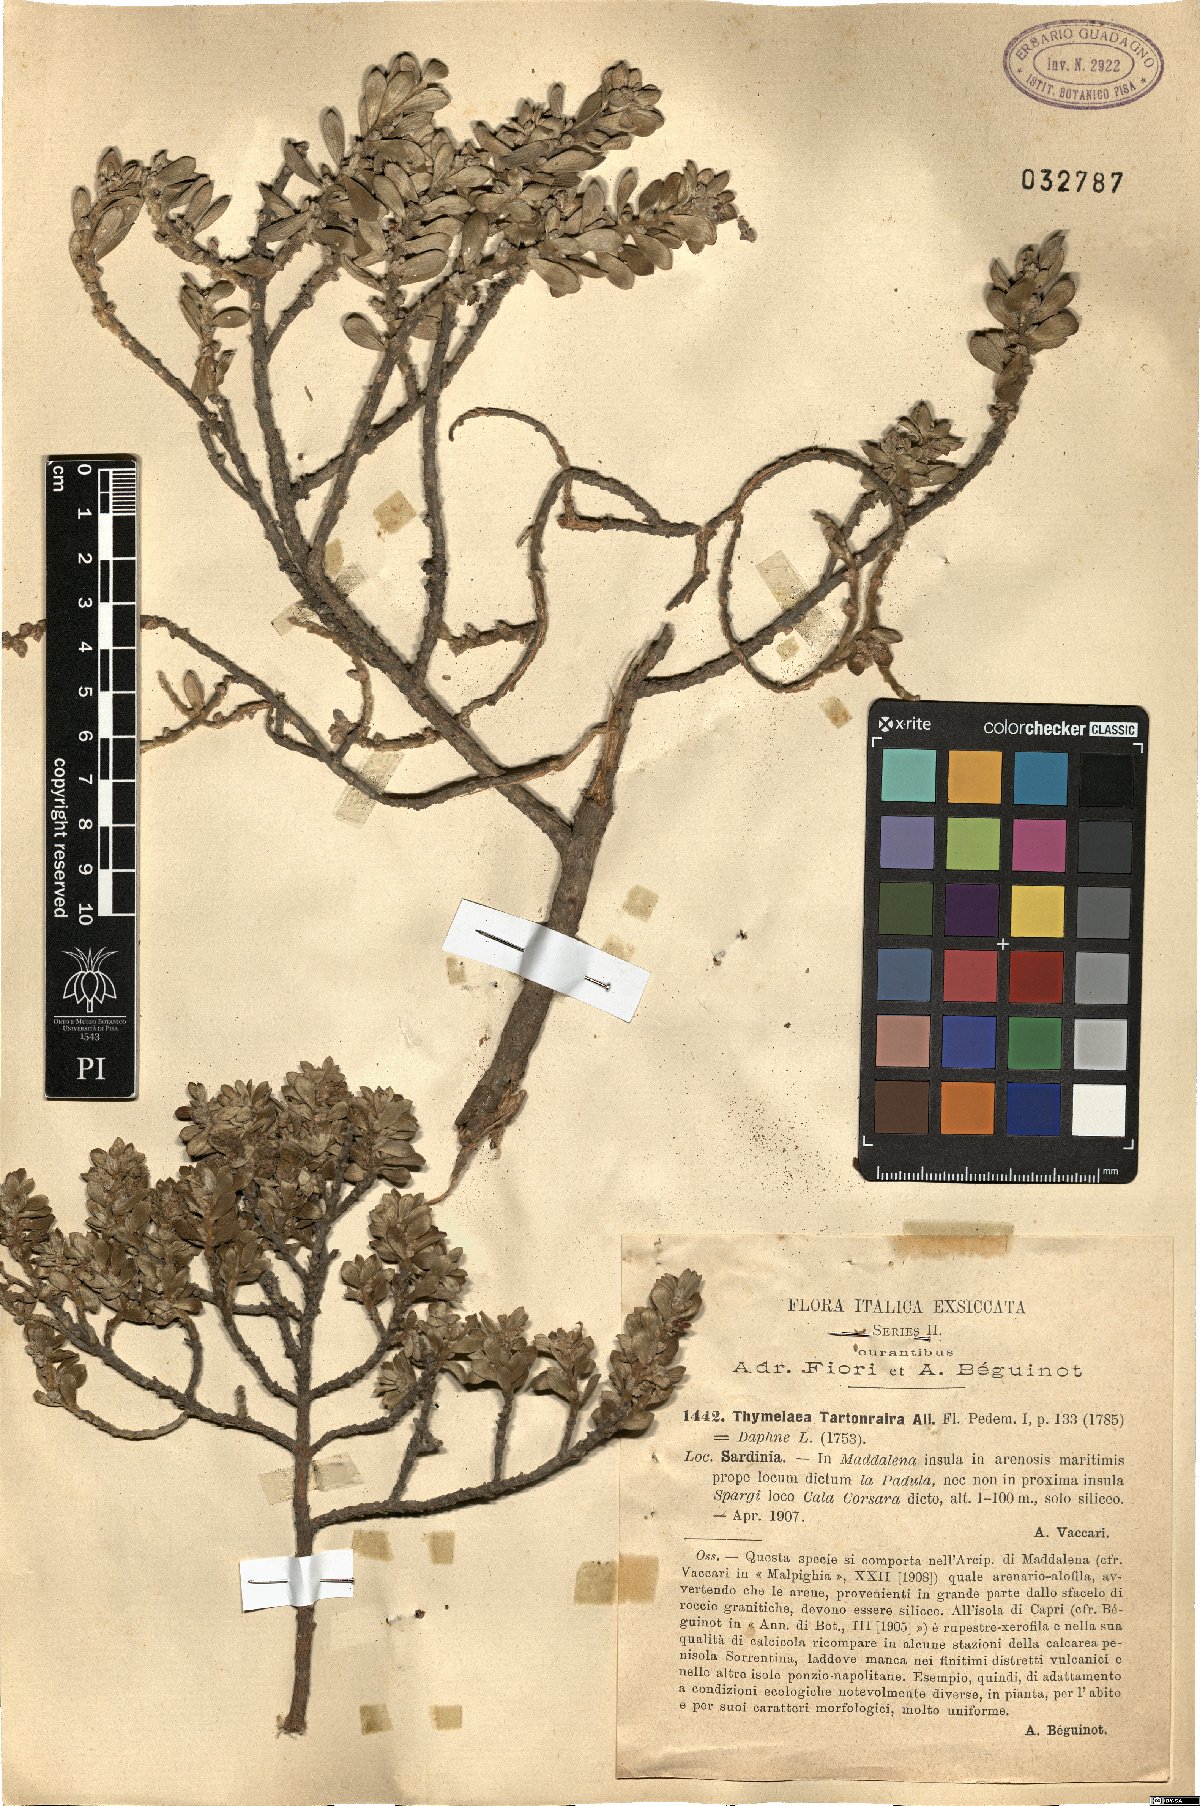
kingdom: Plantae
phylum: Tracheophyta
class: Magnoliopsida
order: Malvales
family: Thymelaeaceae
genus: Thymelaea
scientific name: Thymelaea tartonraira
